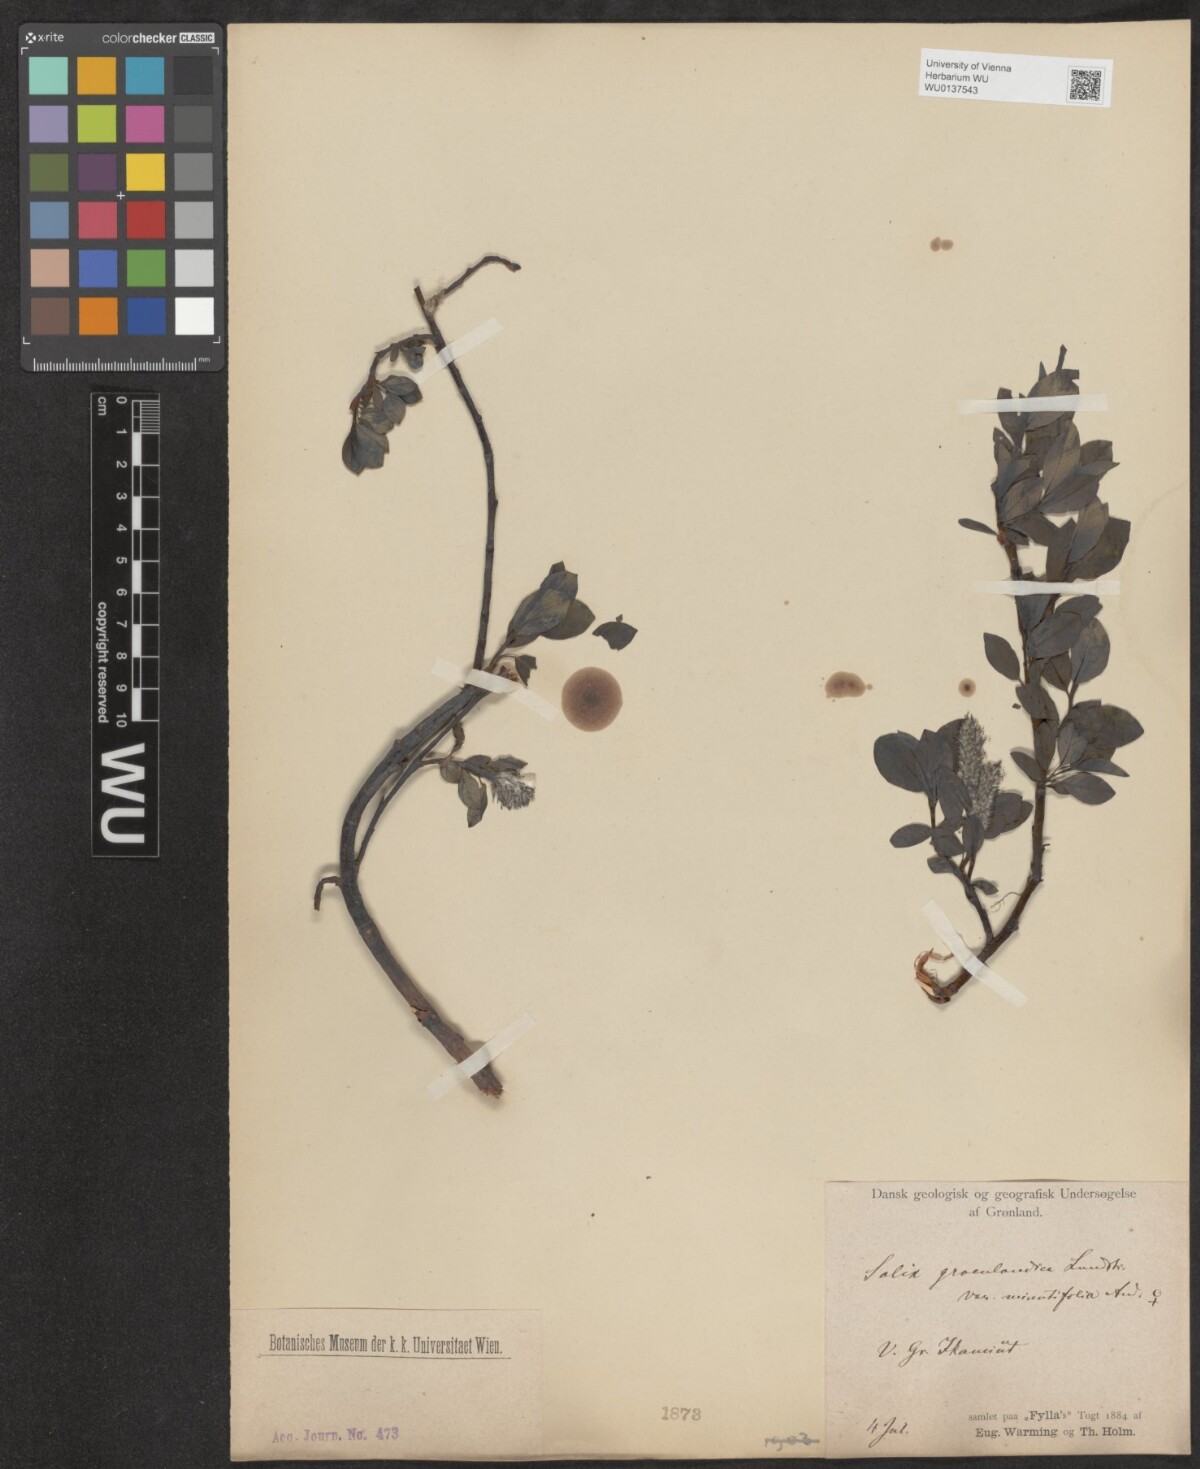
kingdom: Plantae
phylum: Tracheophyta
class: Magnoliopsida
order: Malpighiales
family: Salicaceae
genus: Salix
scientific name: Salix arctophila
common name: Greenland willow
